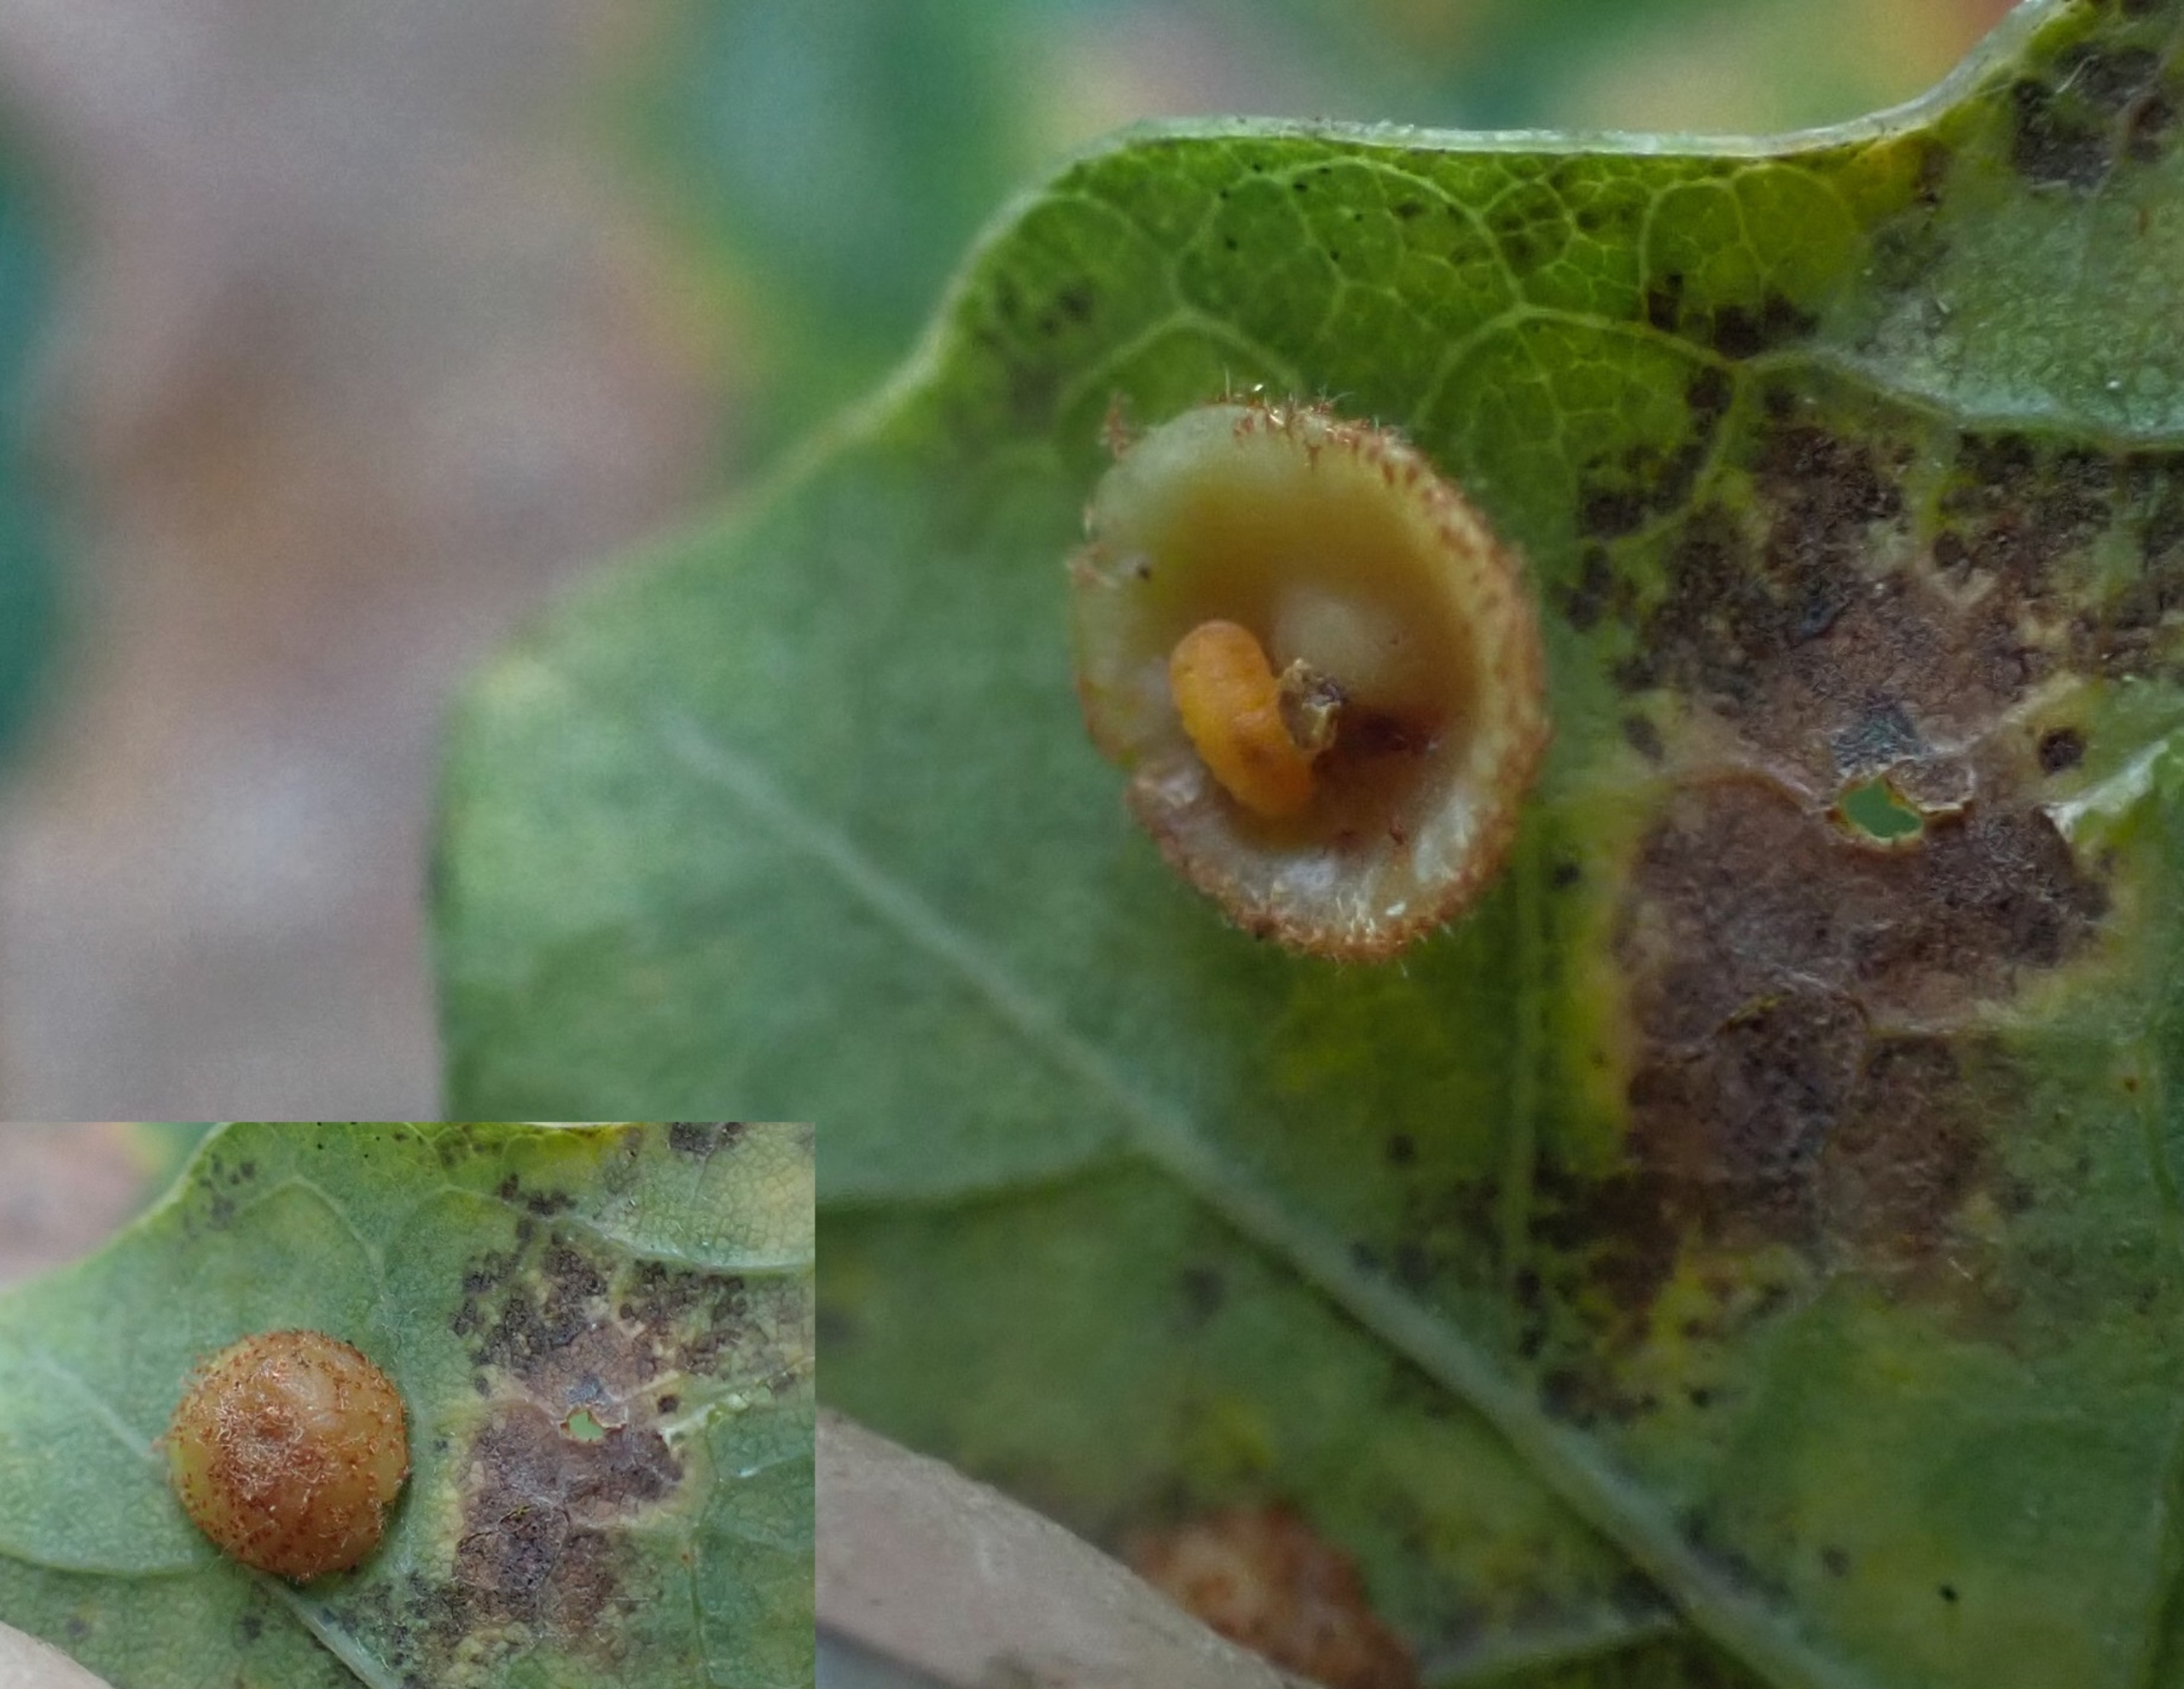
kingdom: Animalia
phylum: Arthropoda
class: Insecta
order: Diptera
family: Cecidomyiidae
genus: Parallelodiplosis
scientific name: Parallelodiplosis galliperda
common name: Underbogalmyg
